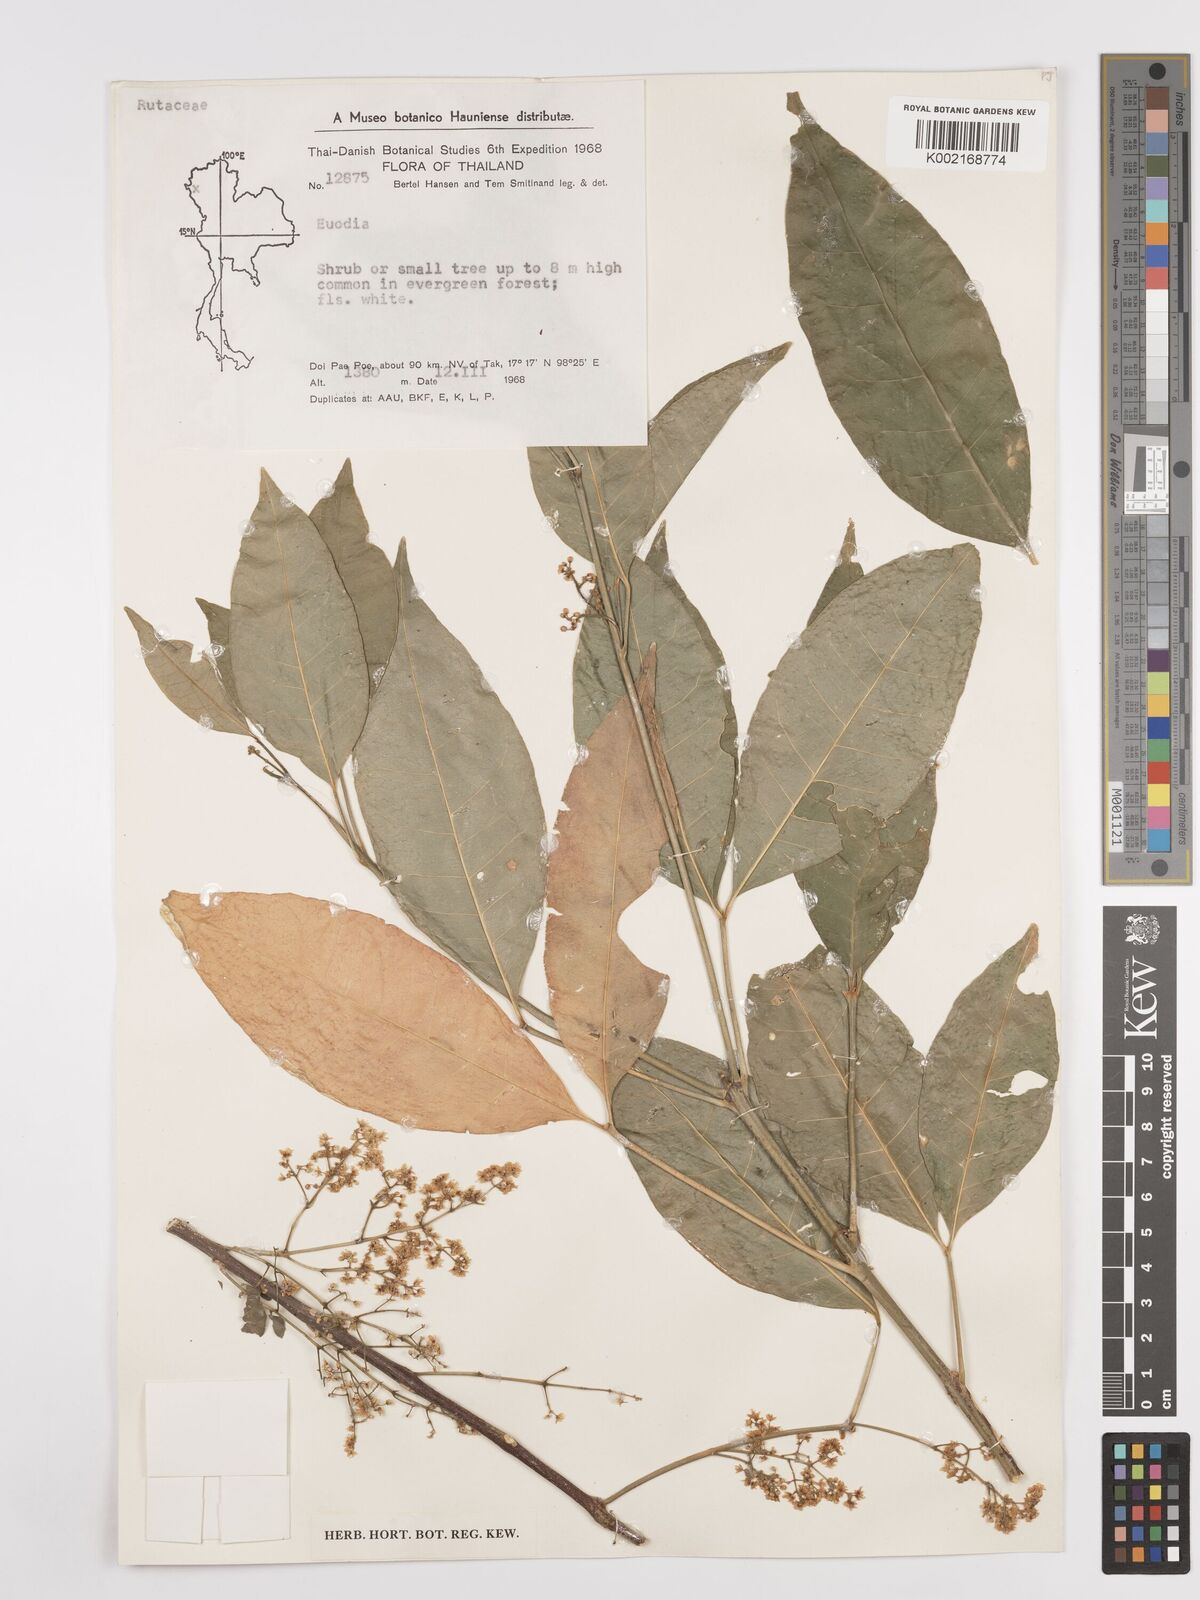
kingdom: Plantae
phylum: Tracheophyta
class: Magnoliopsida
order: Sapindales
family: Rutaceae
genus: Euodia
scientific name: Euodia
